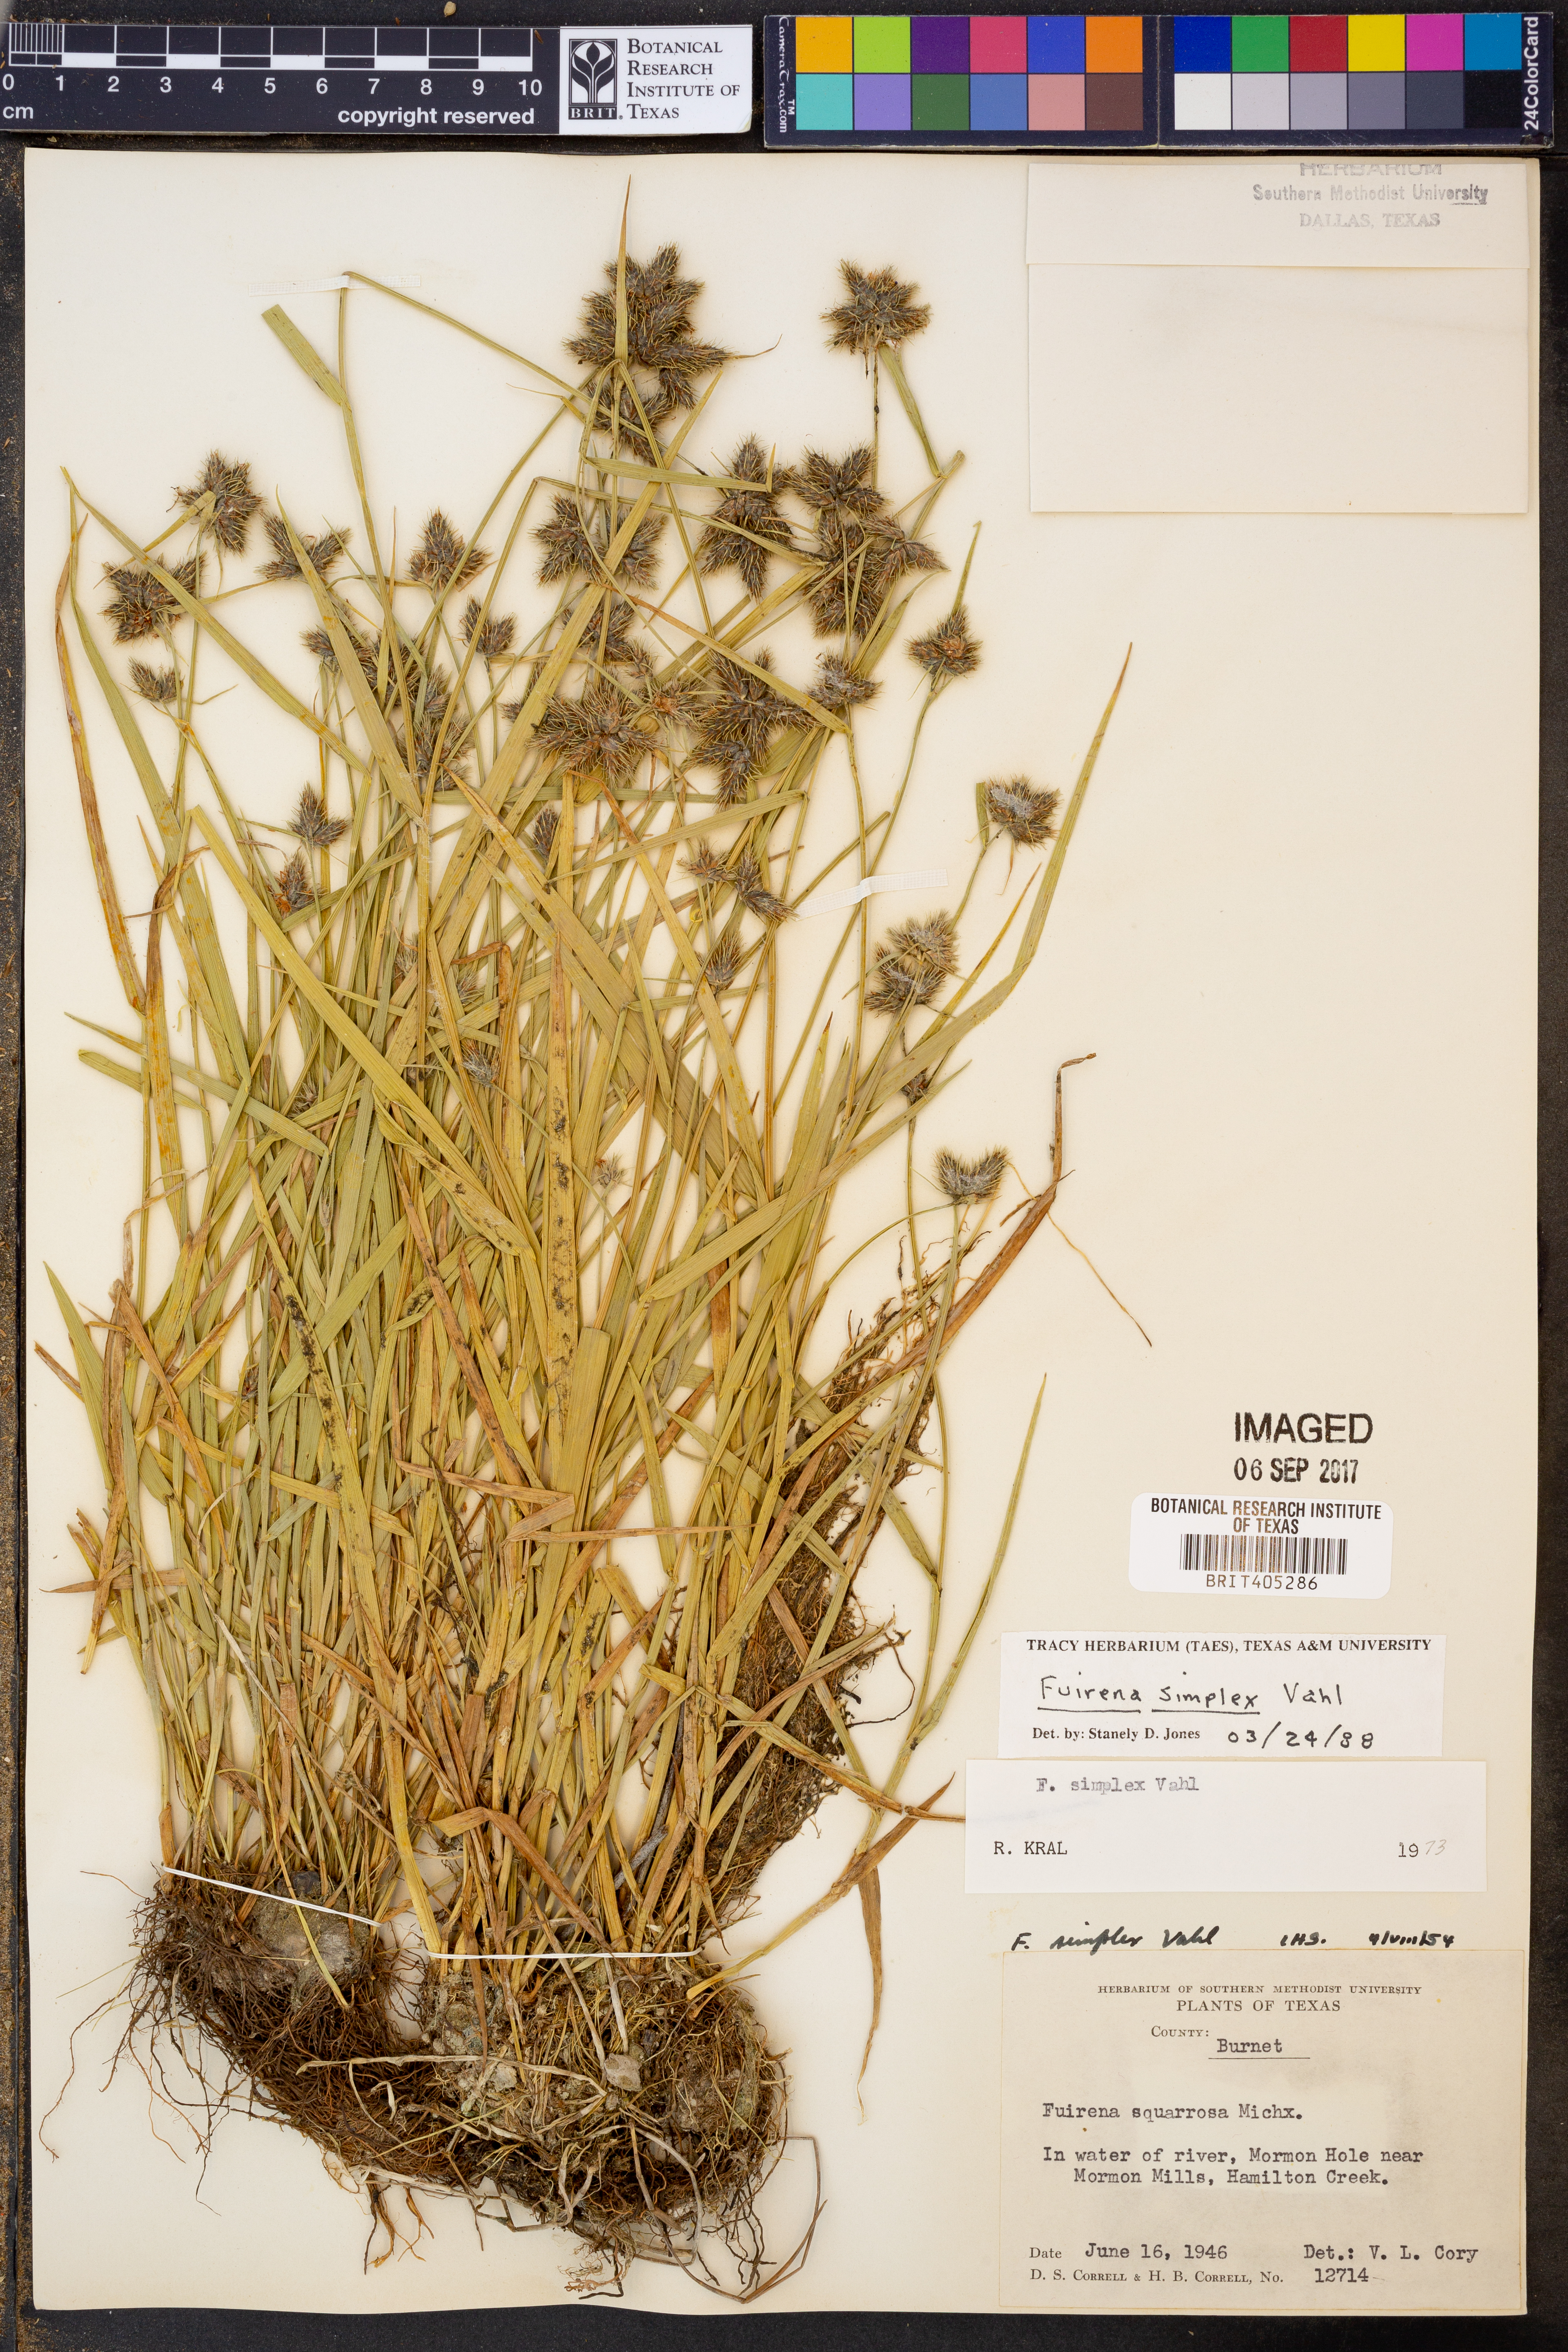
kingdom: Plantae
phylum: Tracheophyta
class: Liliopsida
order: Poales
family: Cyperaceae
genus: Fuirena
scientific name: Fuirena simplex
